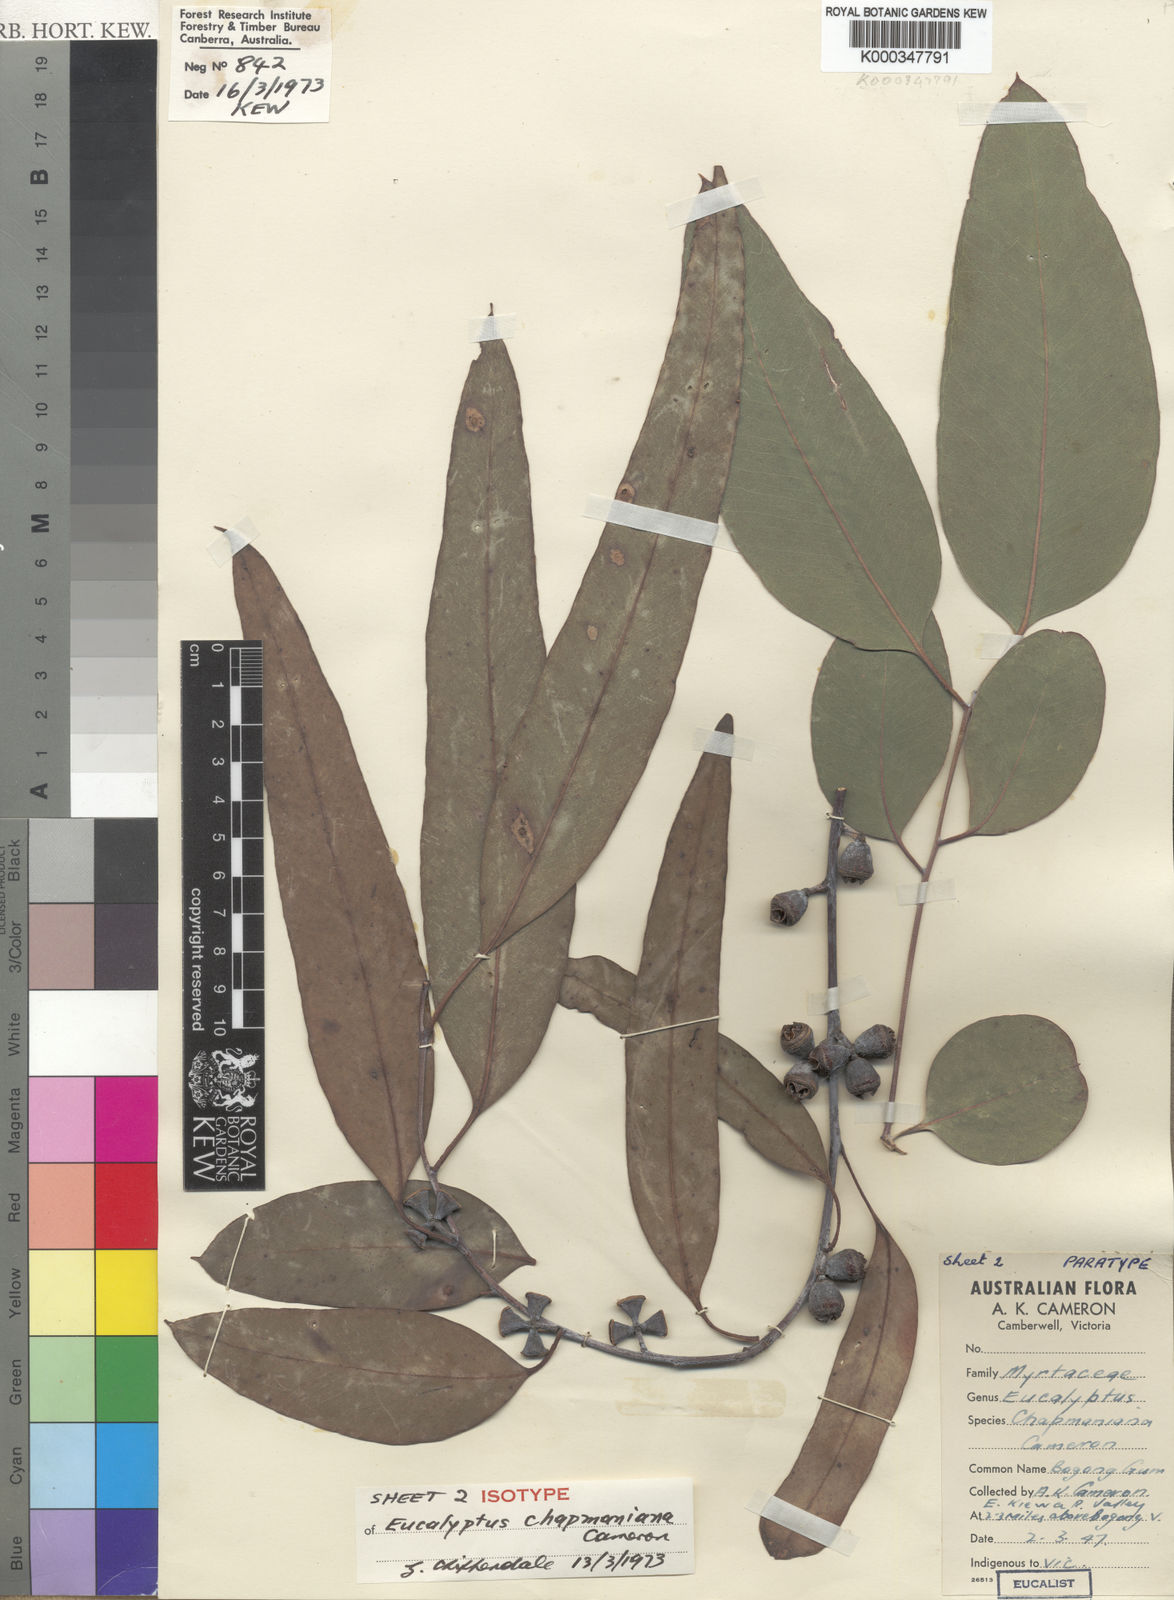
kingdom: Plantae
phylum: Tracheophyta
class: Magnoliopsida
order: Myrtales
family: Myrtaceae
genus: Eucalyptus
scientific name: Eucalyptus chapmaniana
